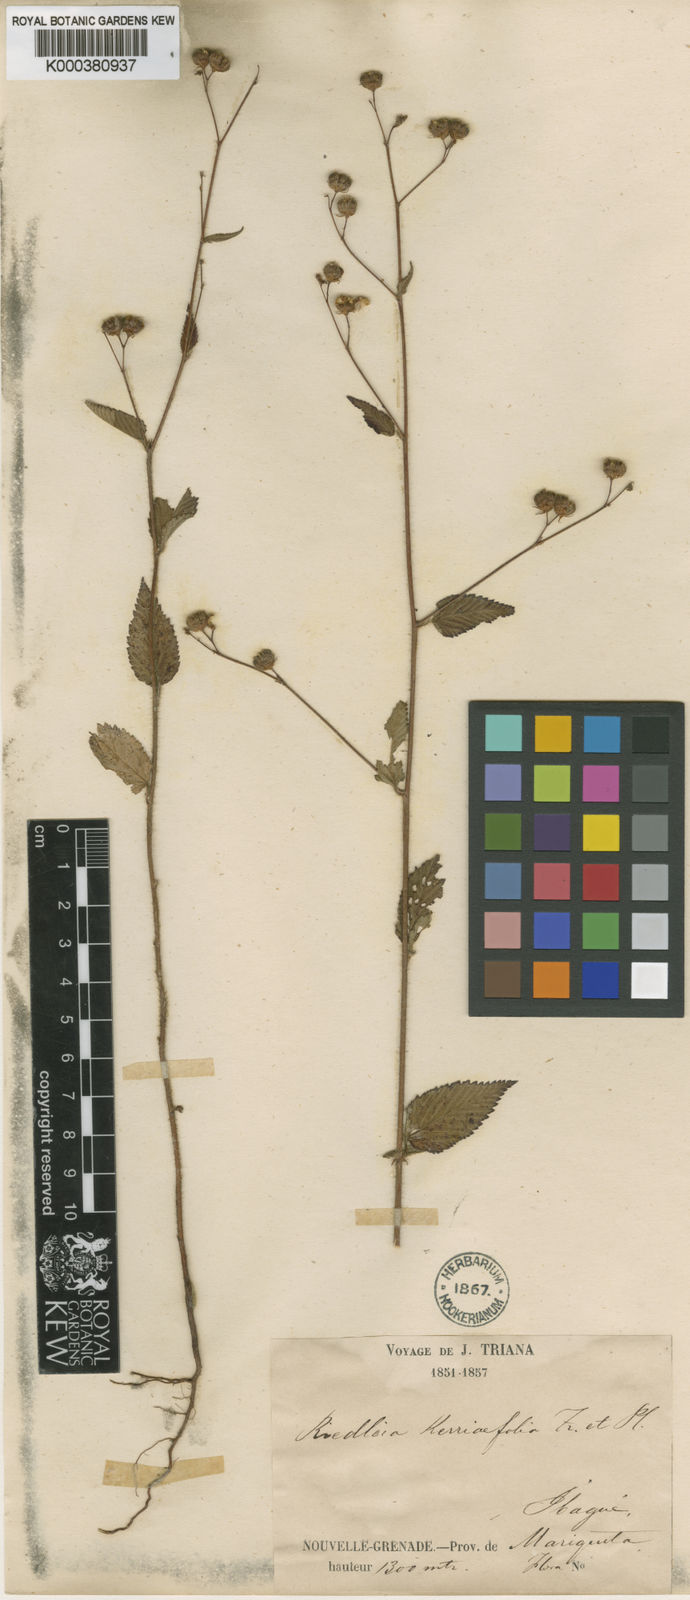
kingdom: Plantae
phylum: Tracheophyta
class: Magnoliopsida
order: Malvales
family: Malvaceae
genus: Melochia
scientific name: Melochia kerriifolia
